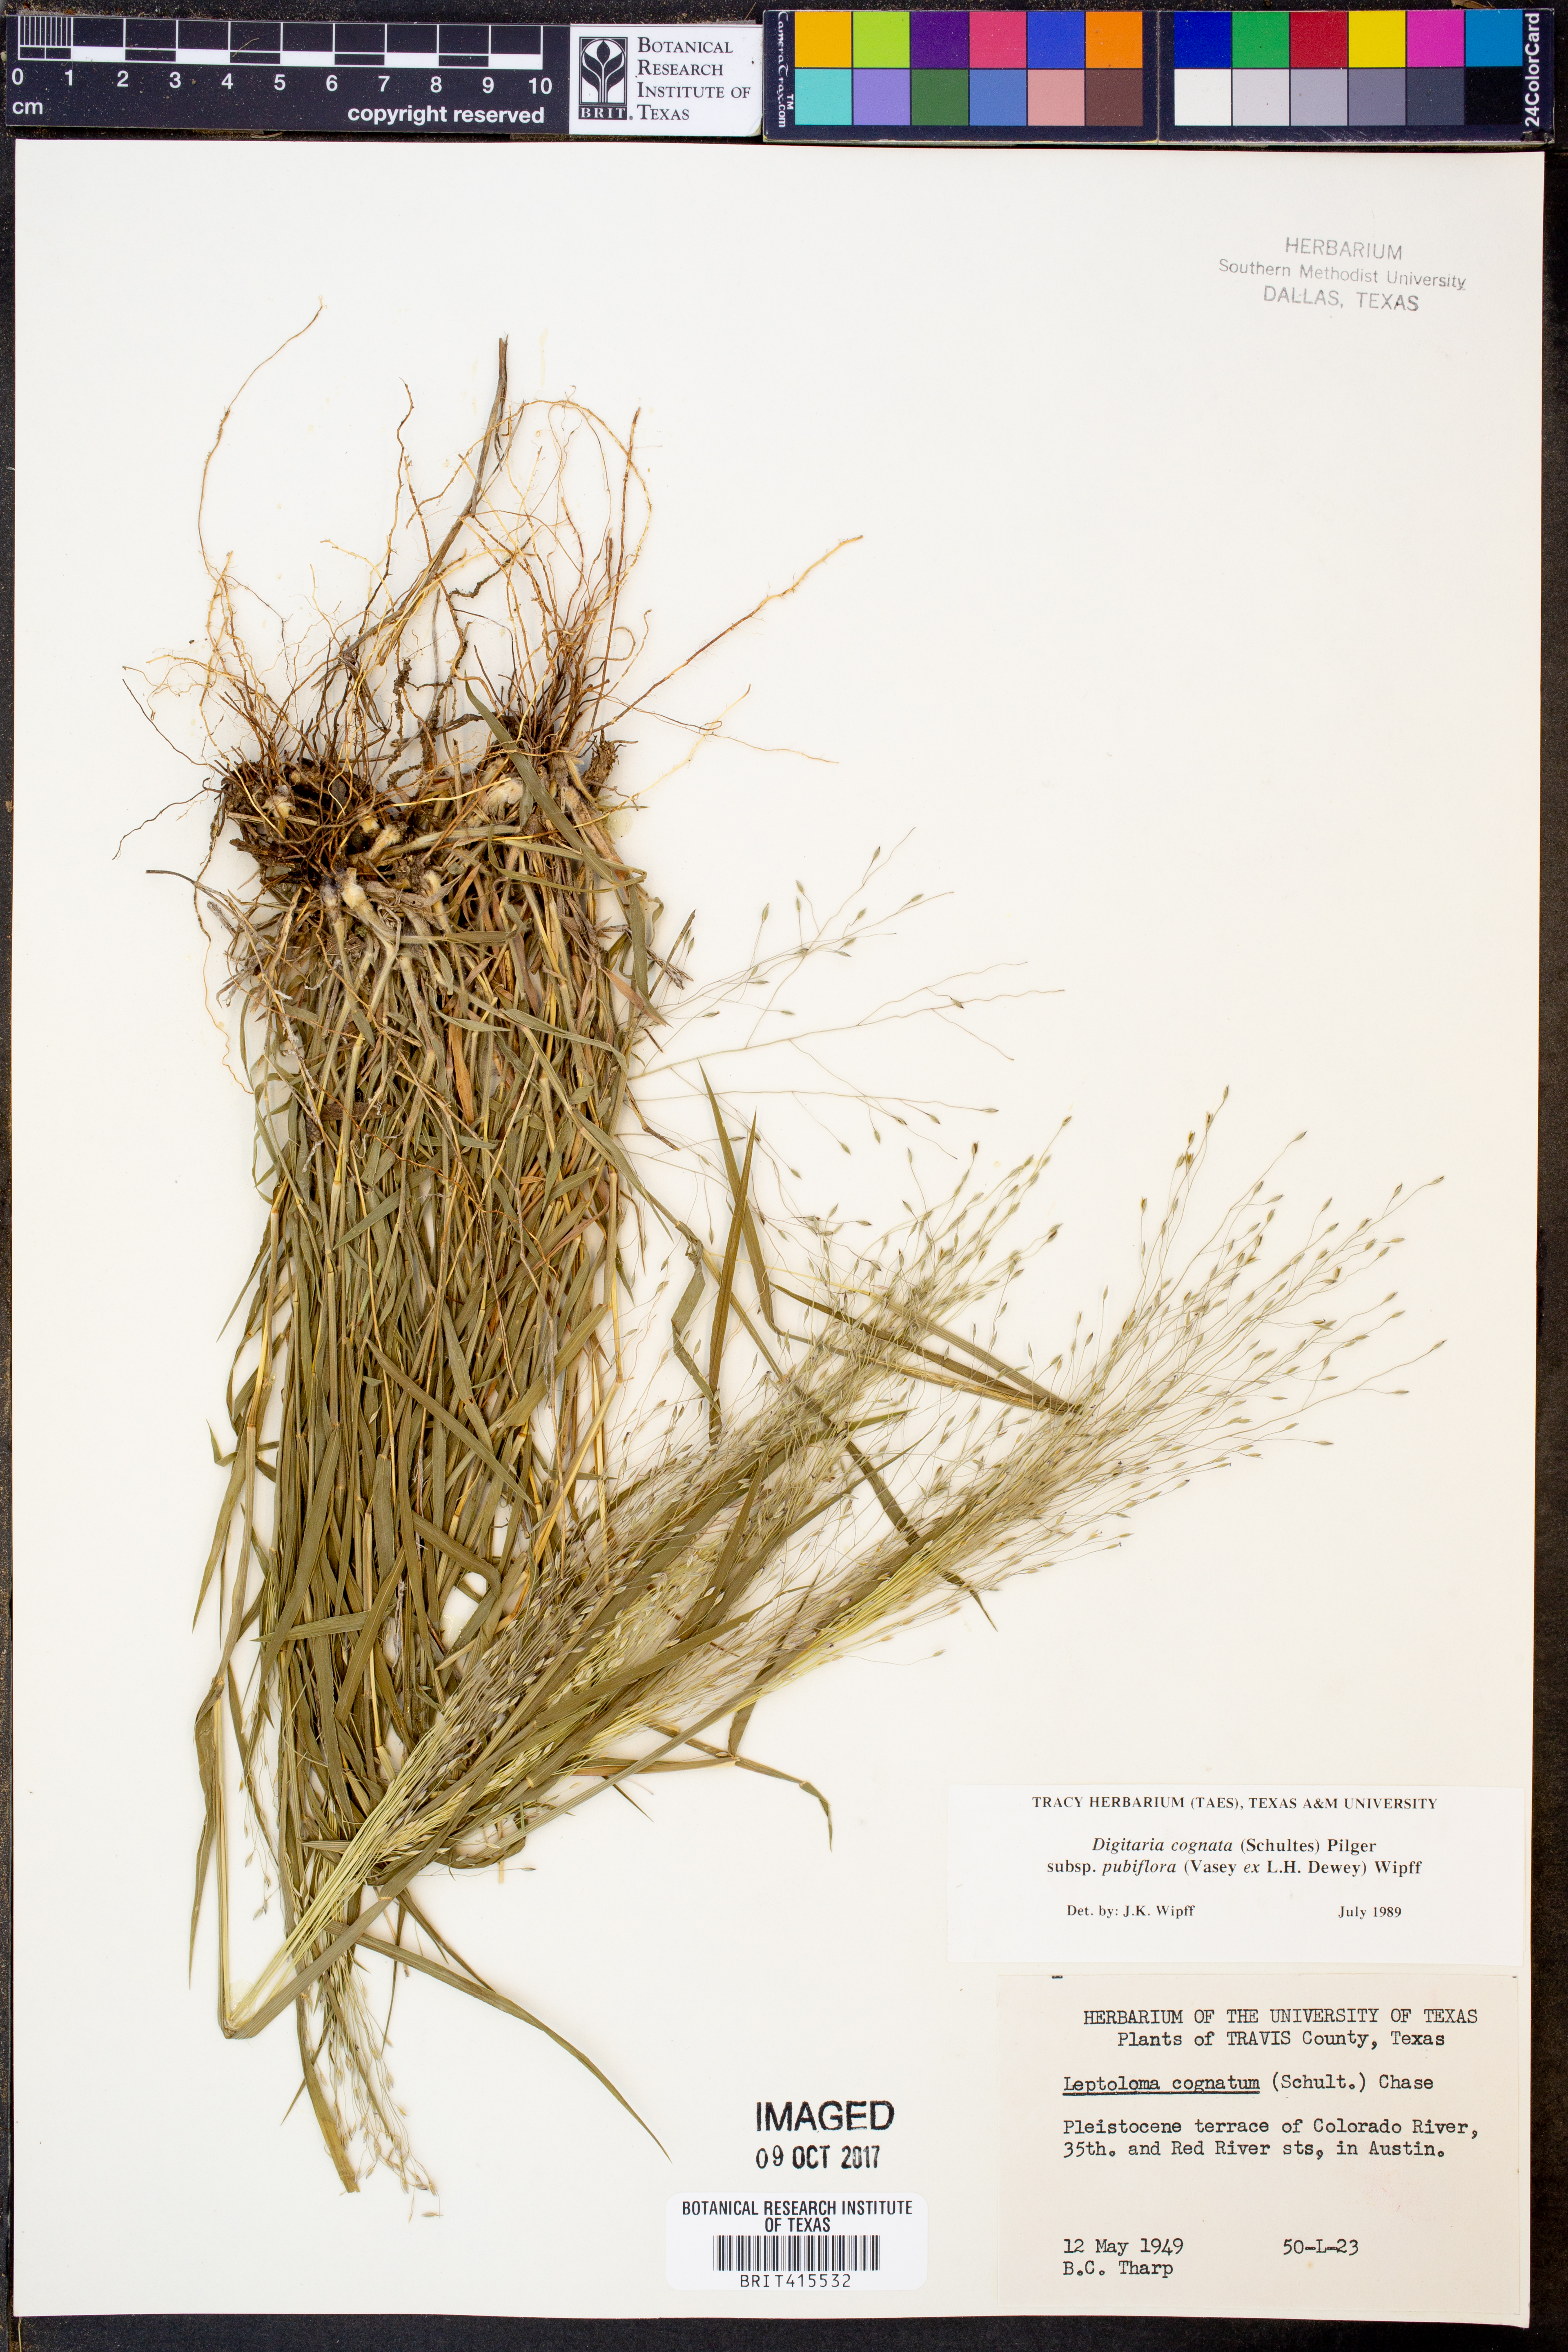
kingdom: Plantae
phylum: Tracheophyta
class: Liliopsida
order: Poales
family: Poaceae
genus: Digitaria
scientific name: Digitaria cognata
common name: Fall witchgrass
